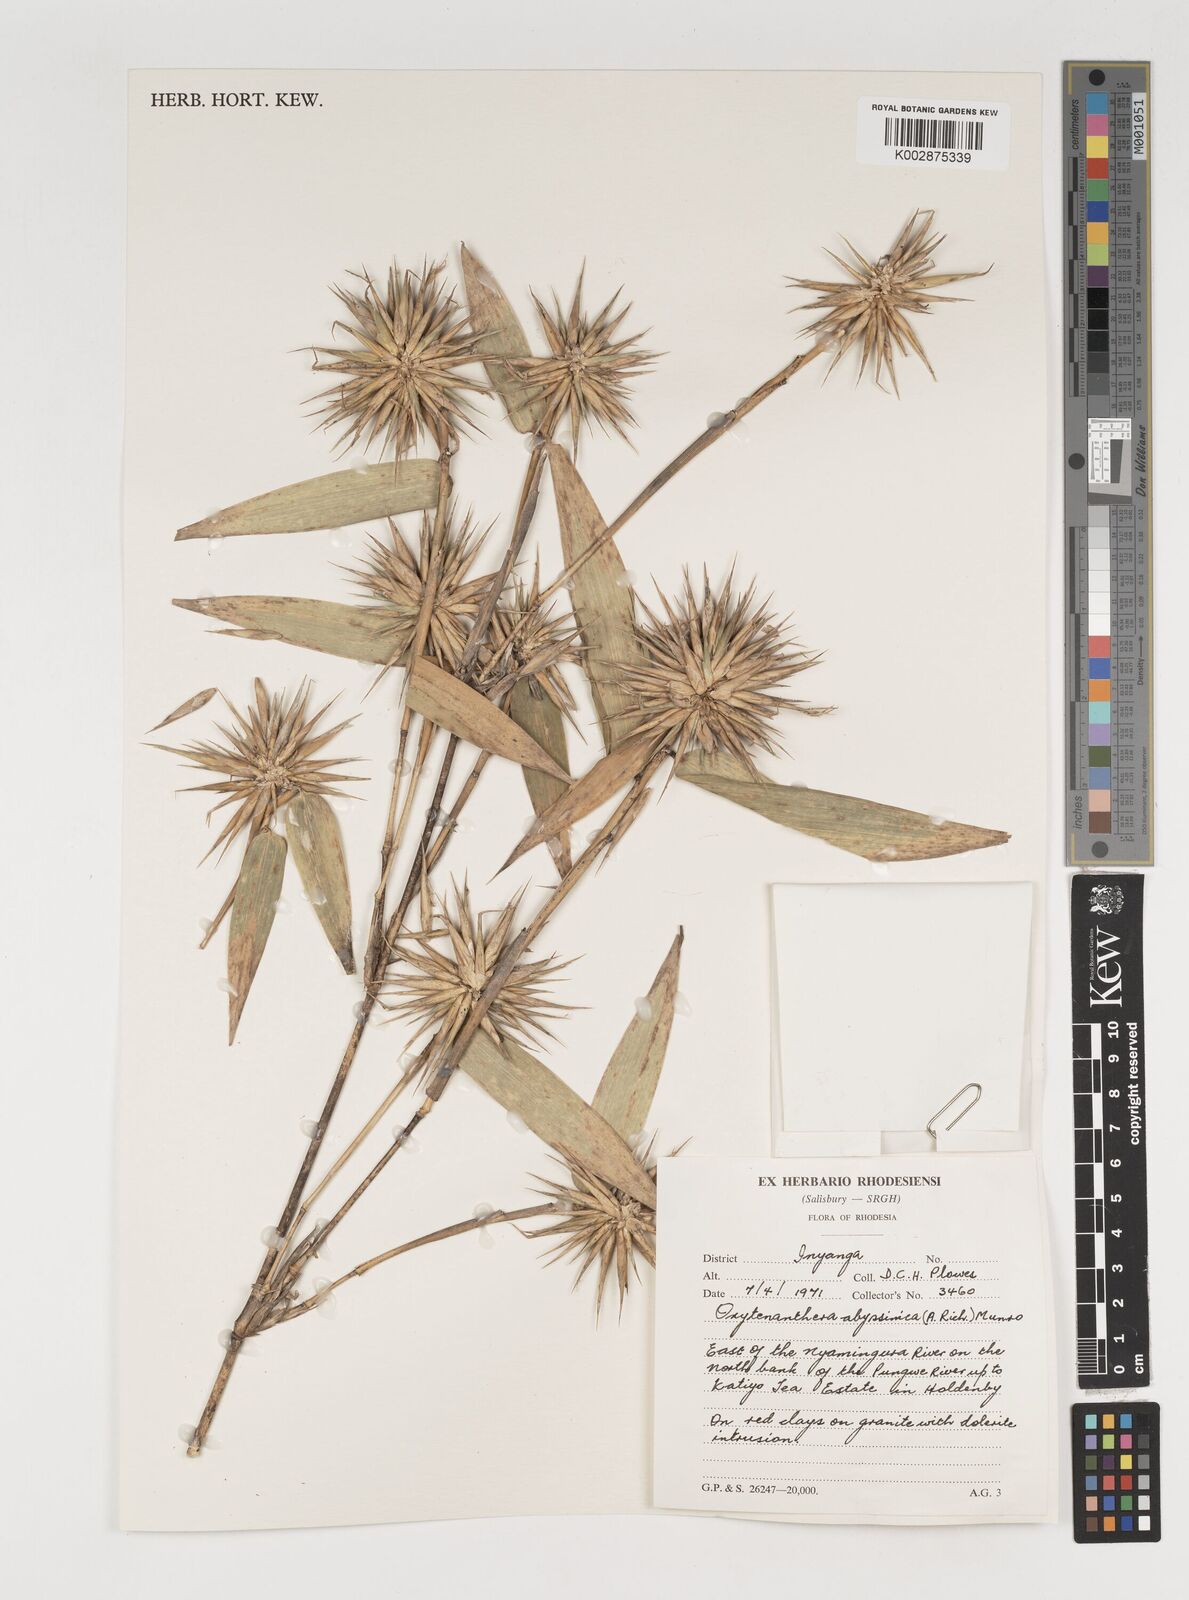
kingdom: Plantae
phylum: Tracheophyta
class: Liliopsida
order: Poales
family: Poaceae
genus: Oxytenanthera
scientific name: Oxytenanthera abyssinica
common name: Wine bamboo
